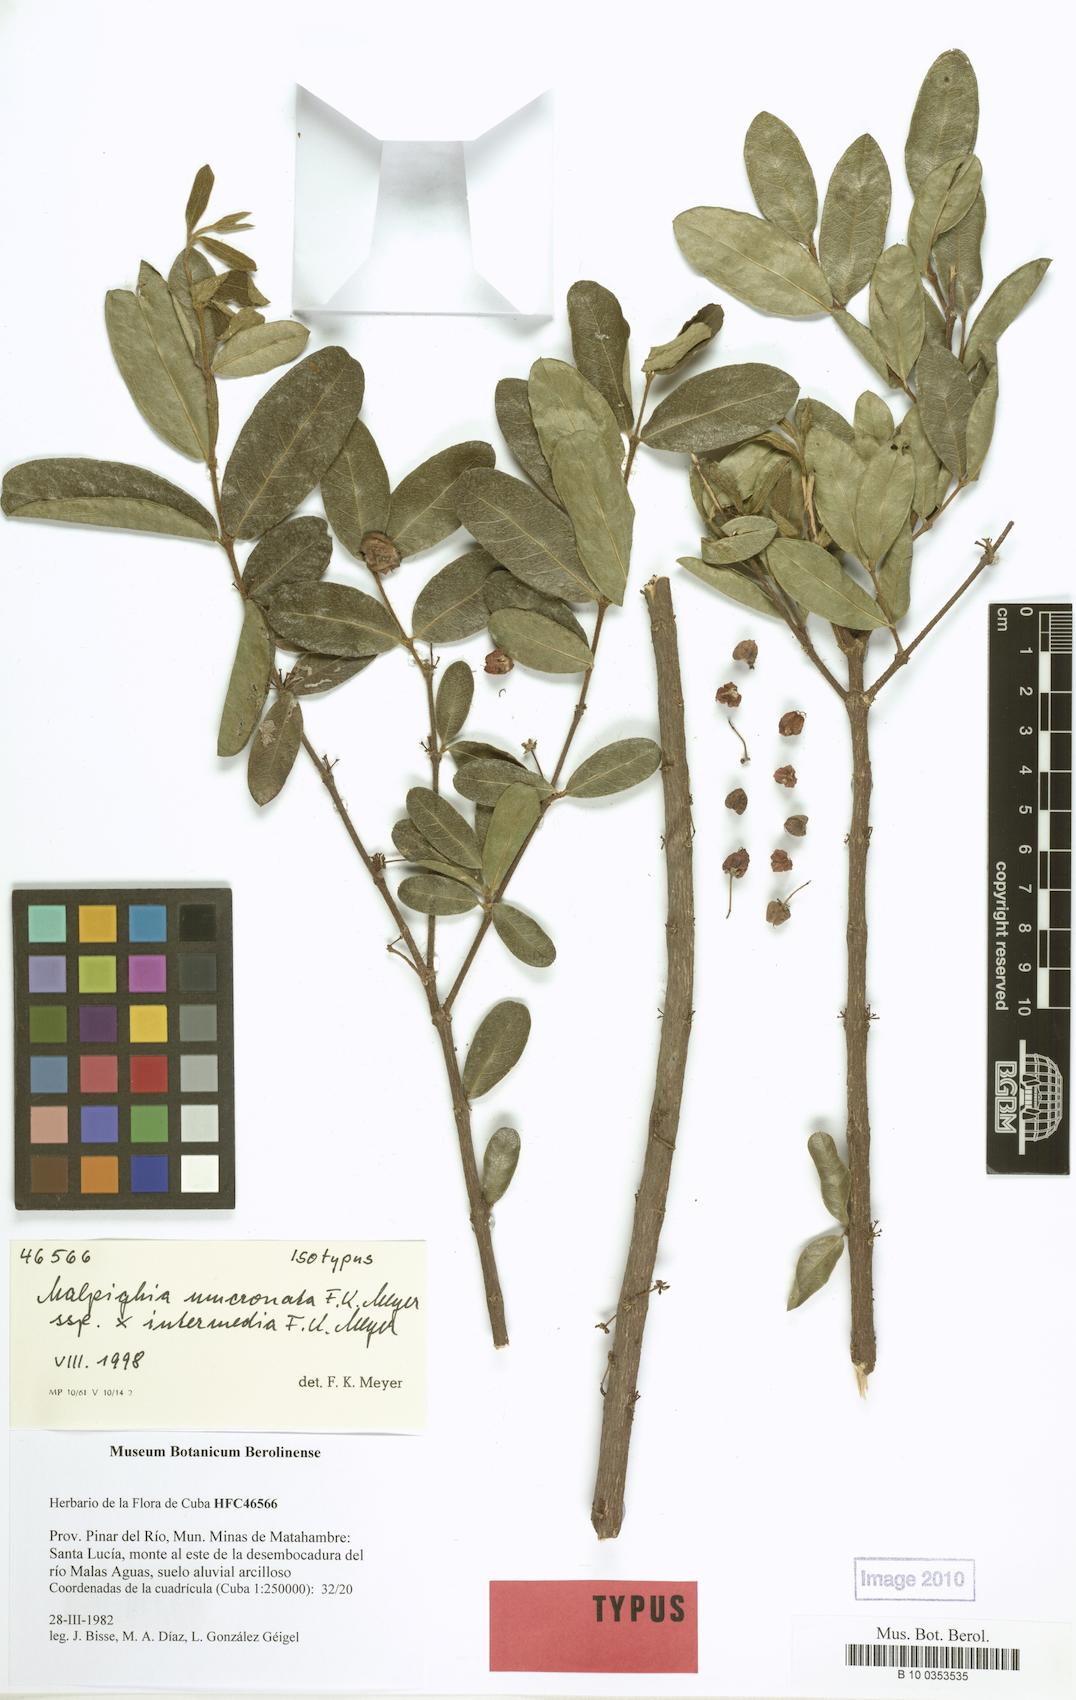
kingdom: Plantae
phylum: Tracheophyta
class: Magnoliopsida
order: Malpighiales
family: Malpighiaceae
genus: Malpighia
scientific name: Malpighia cnide
